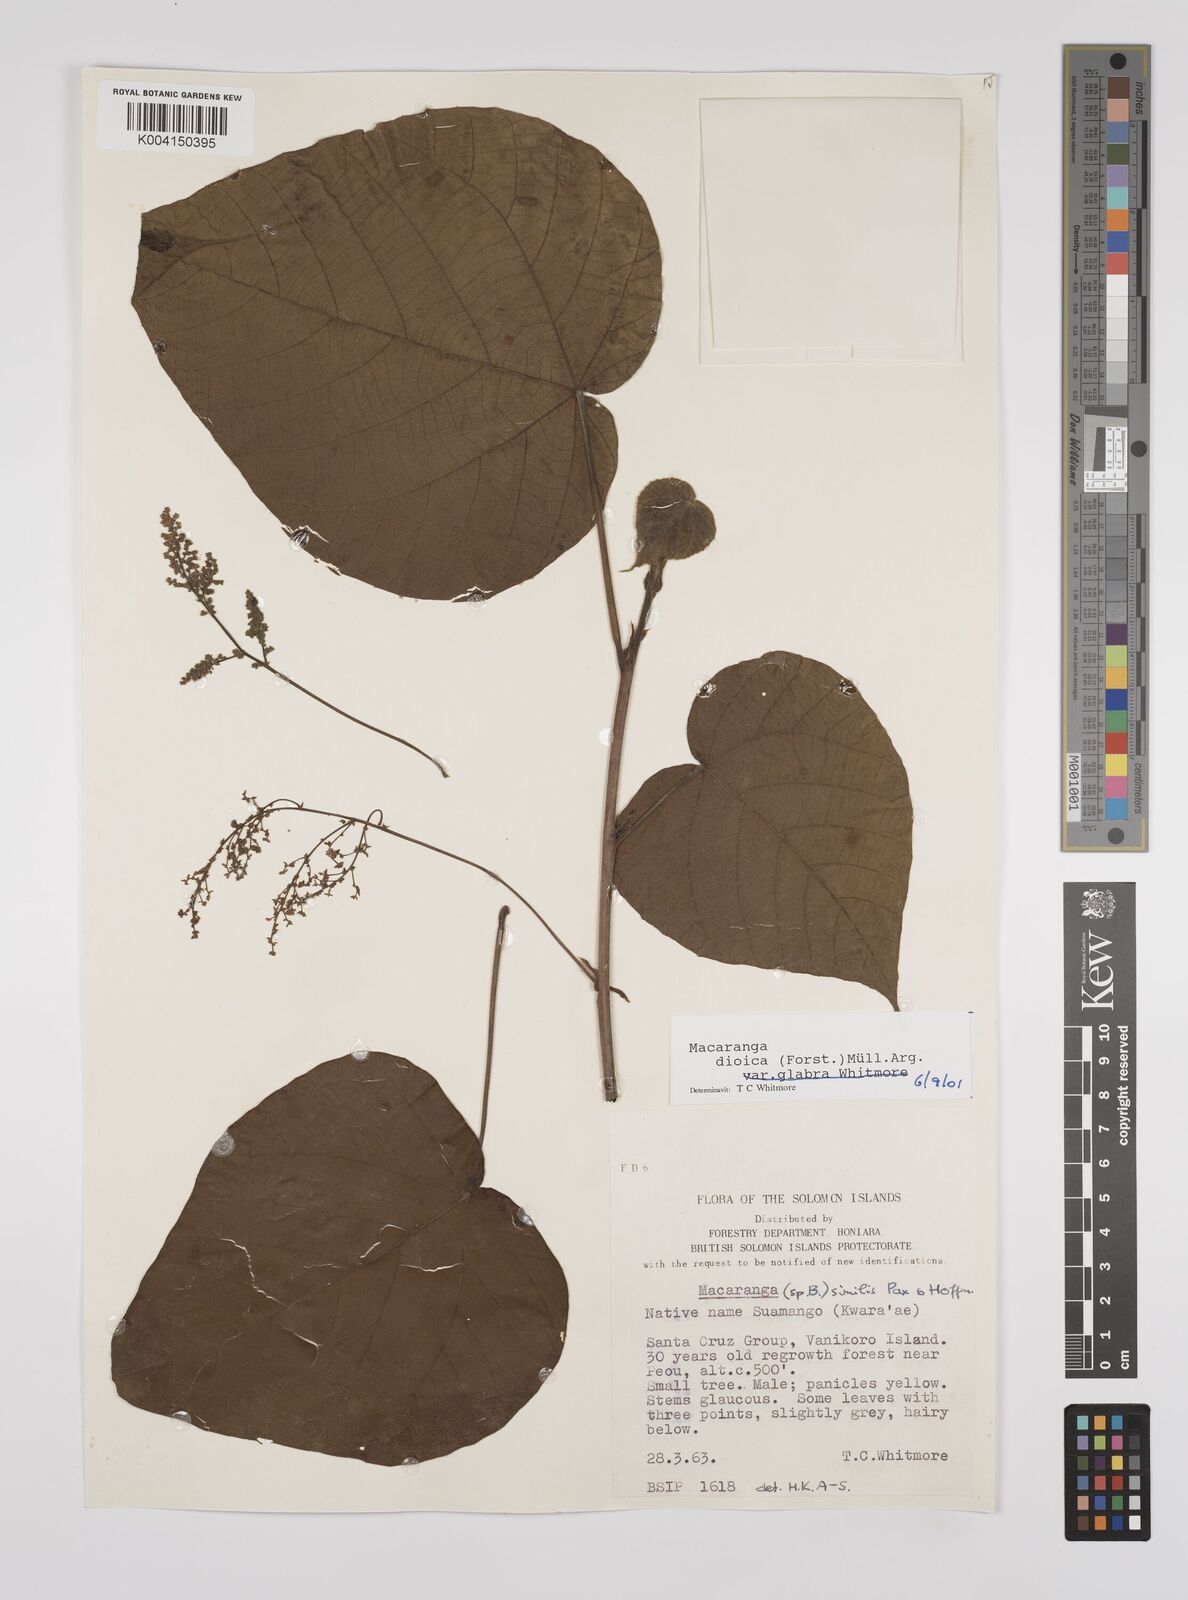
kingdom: Plantae
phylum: Tracheophyta
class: Magnoliopsida
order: Malpighiales
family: Euphorbiaceae
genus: Macaranga
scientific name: Macaranga dioica
